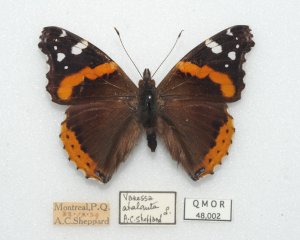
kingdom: Animalia
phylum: Arthropoda
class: Insecta
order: Lepidoptera
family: Nymphalidae
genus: Vanessa
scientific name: Vanessa atalanta
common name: Red Admiral
